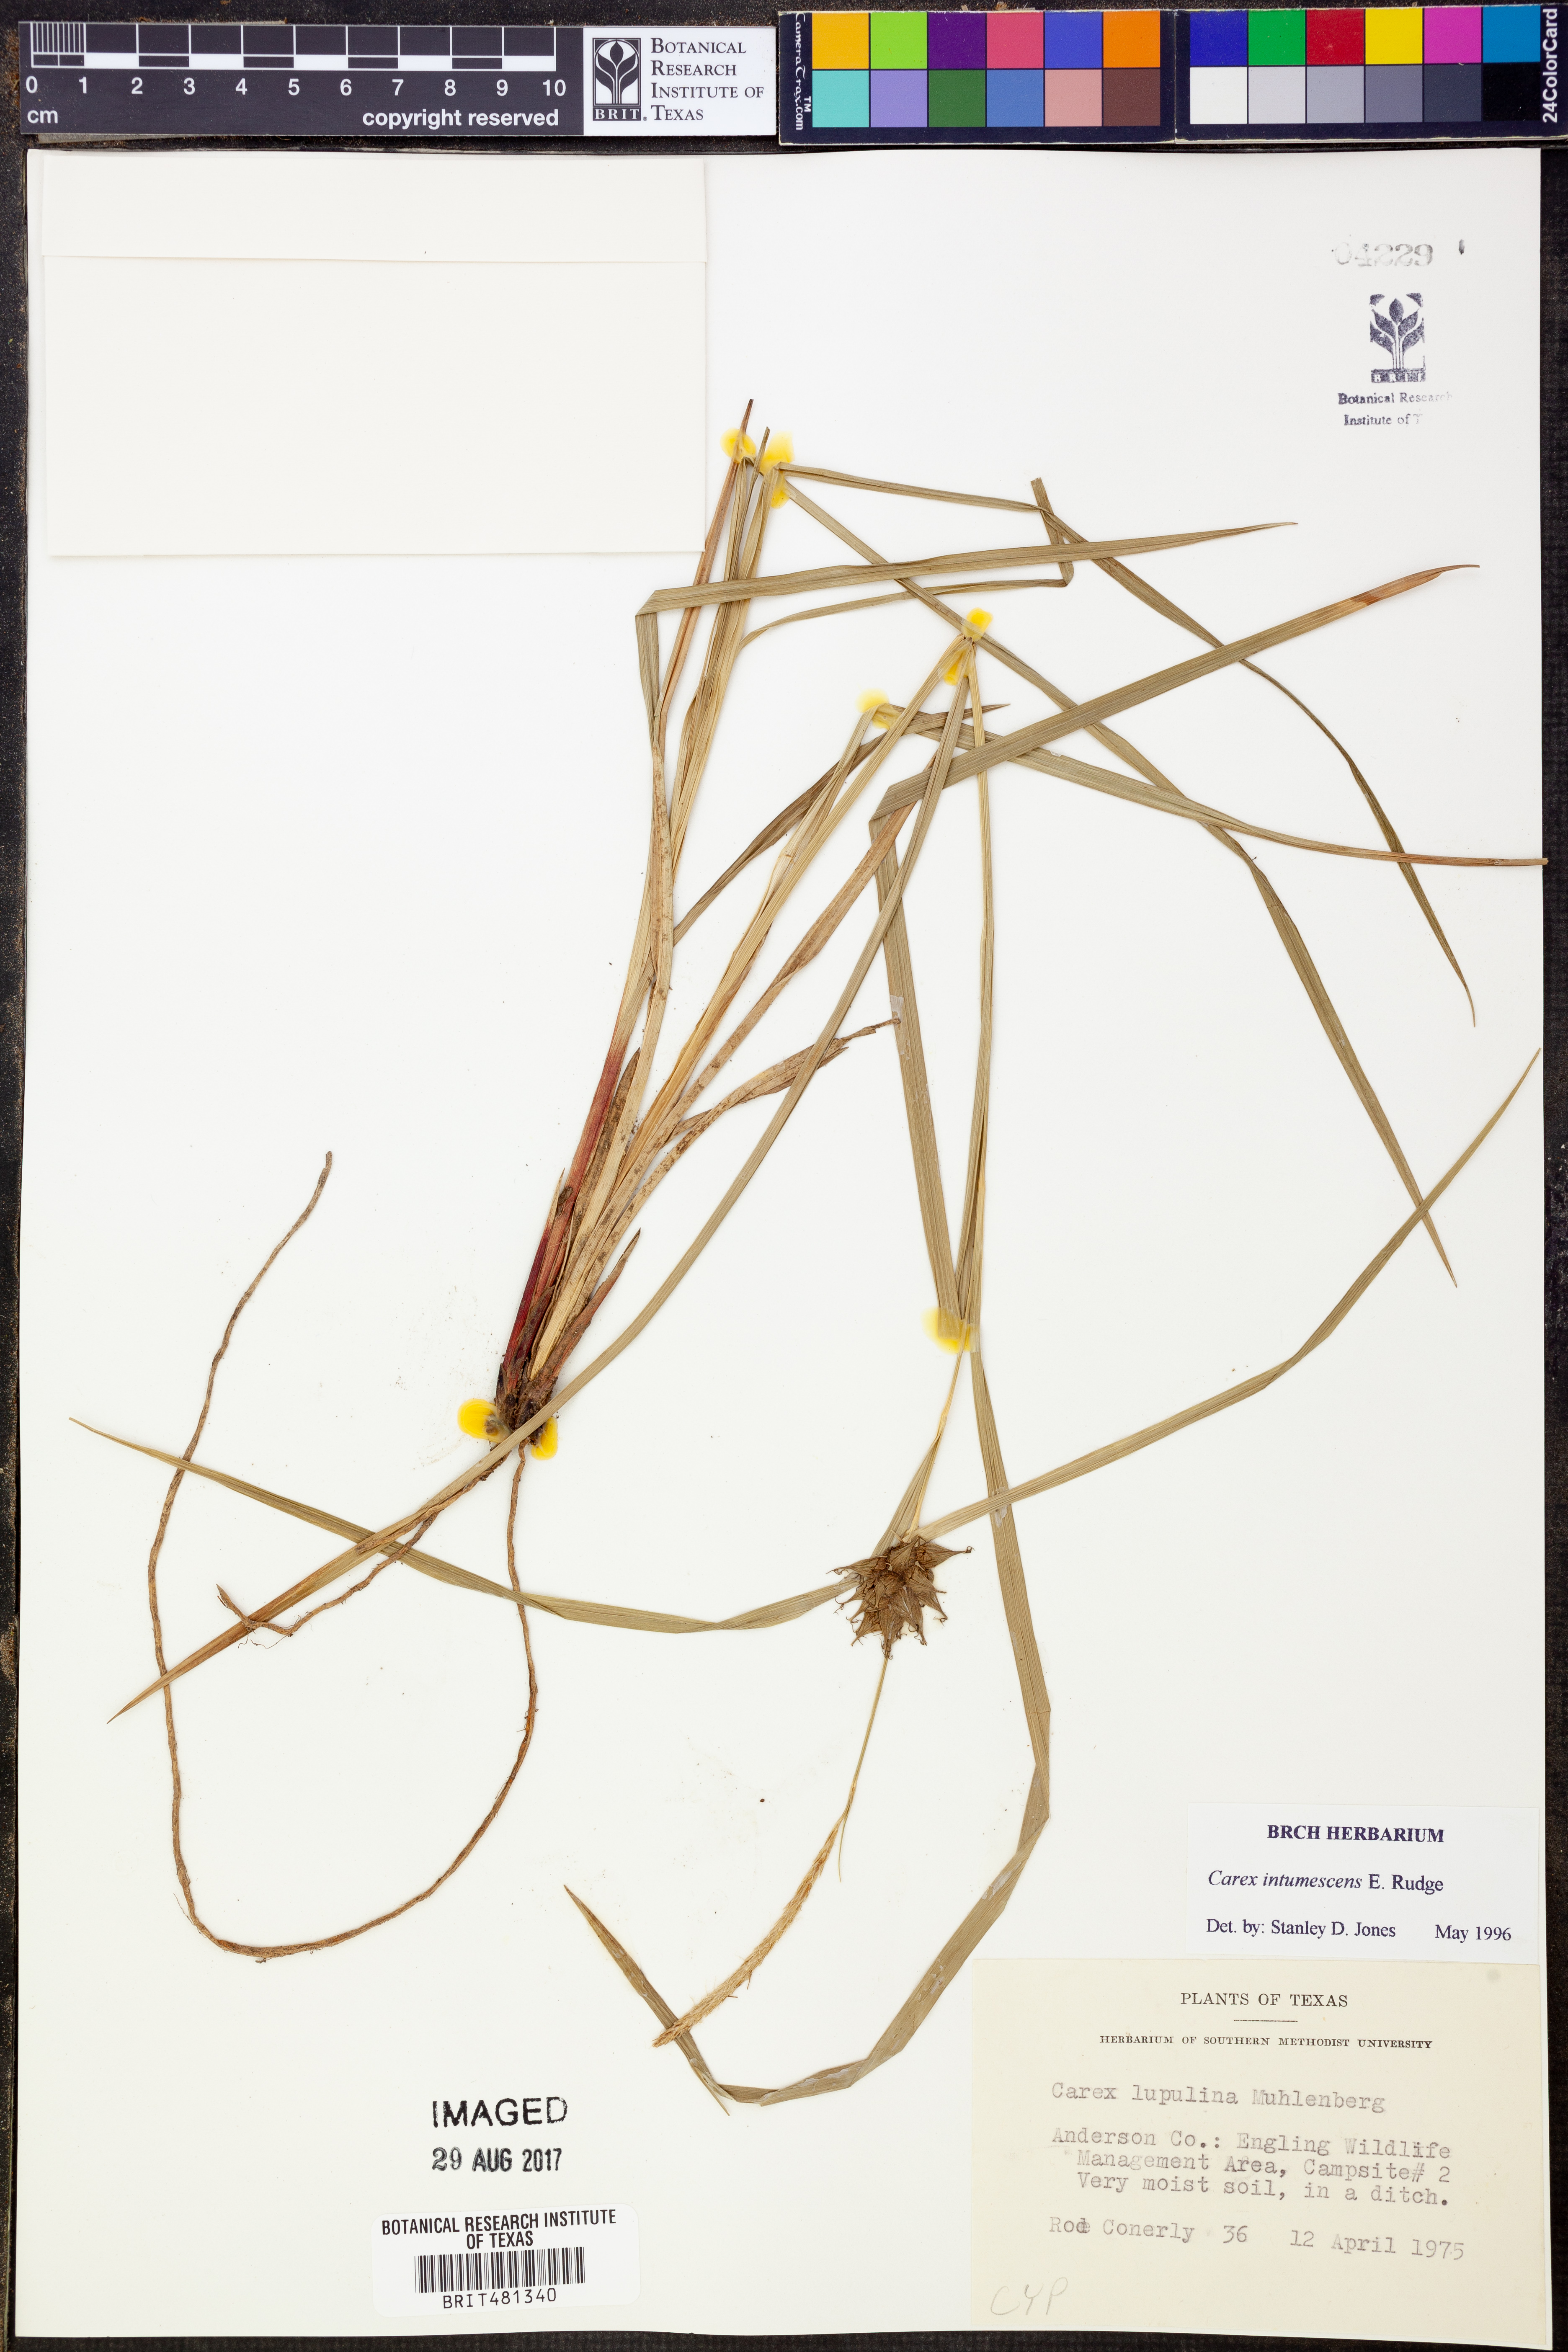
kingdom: Plantae
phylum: Tracheophyta
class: Liliopsida
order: Poales
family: Cyperaceae
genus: Carex
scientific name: Carex intumescens
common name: Greater bladder sedge
